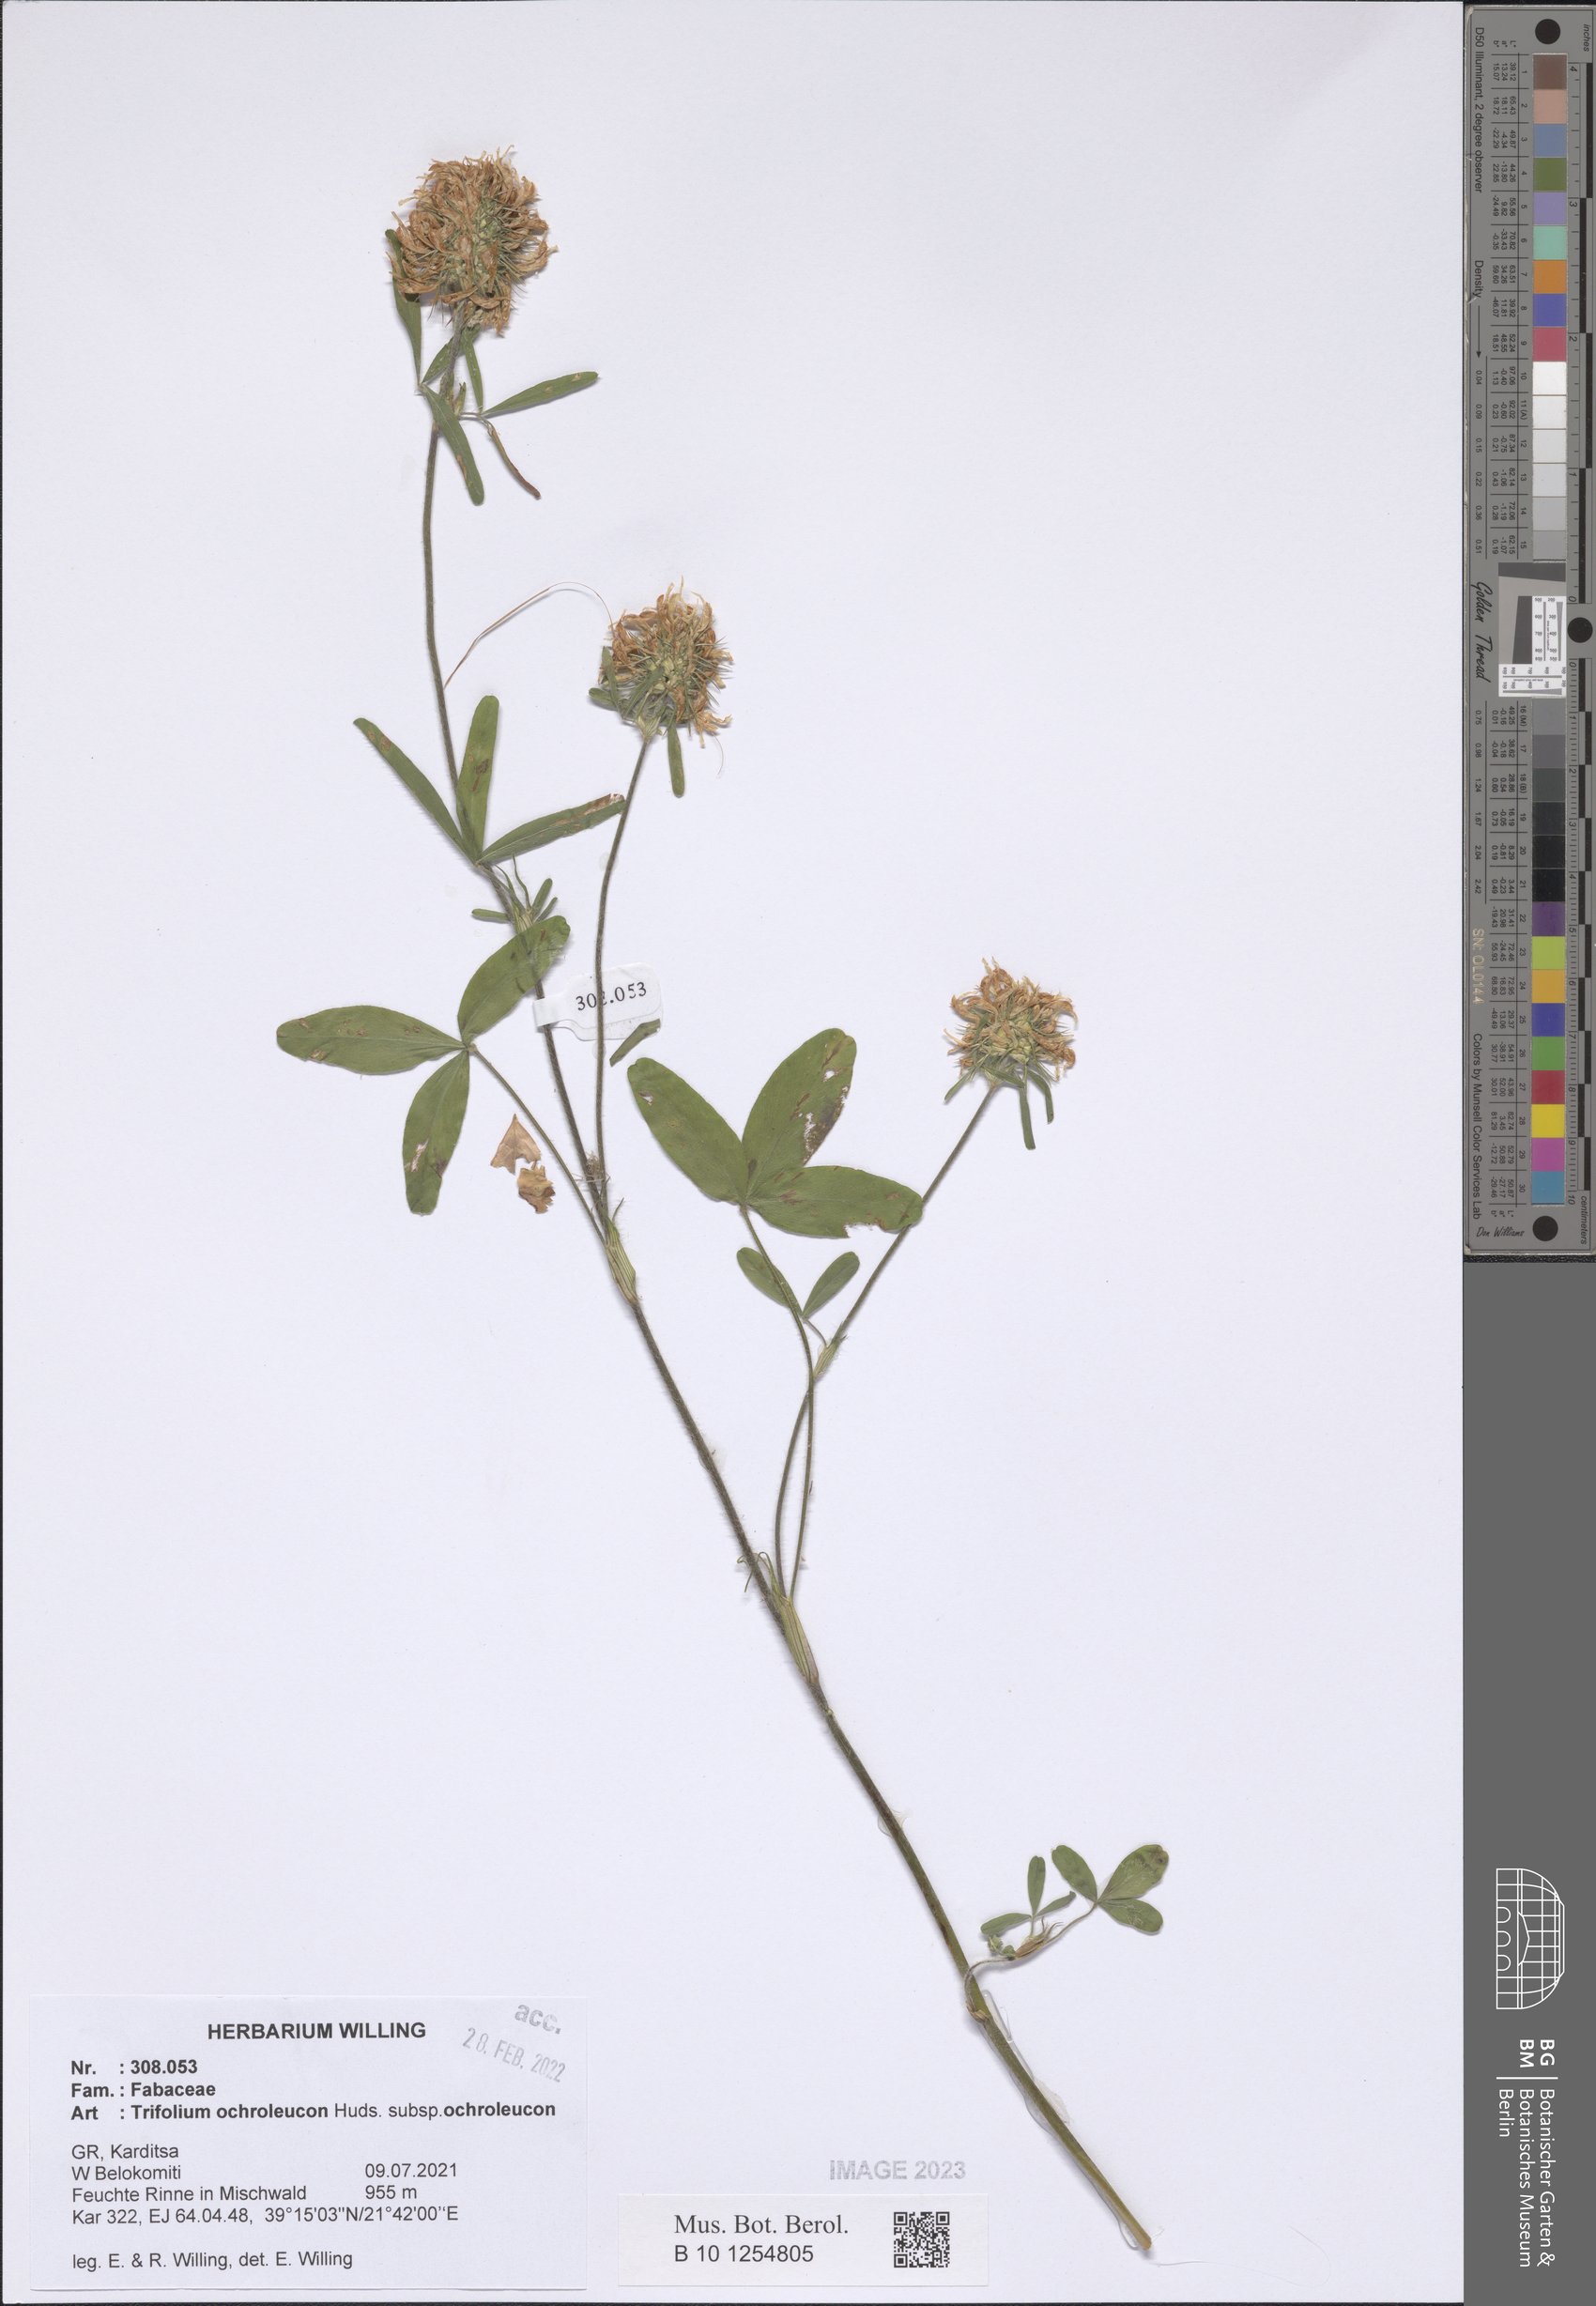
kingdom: Plantae
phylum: Tracheophyta
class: Magnoliopsida
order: Fabales
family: Fabaceae
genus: Trifolium
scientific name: Trifolium ochroleucon
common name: Sulphur clover
